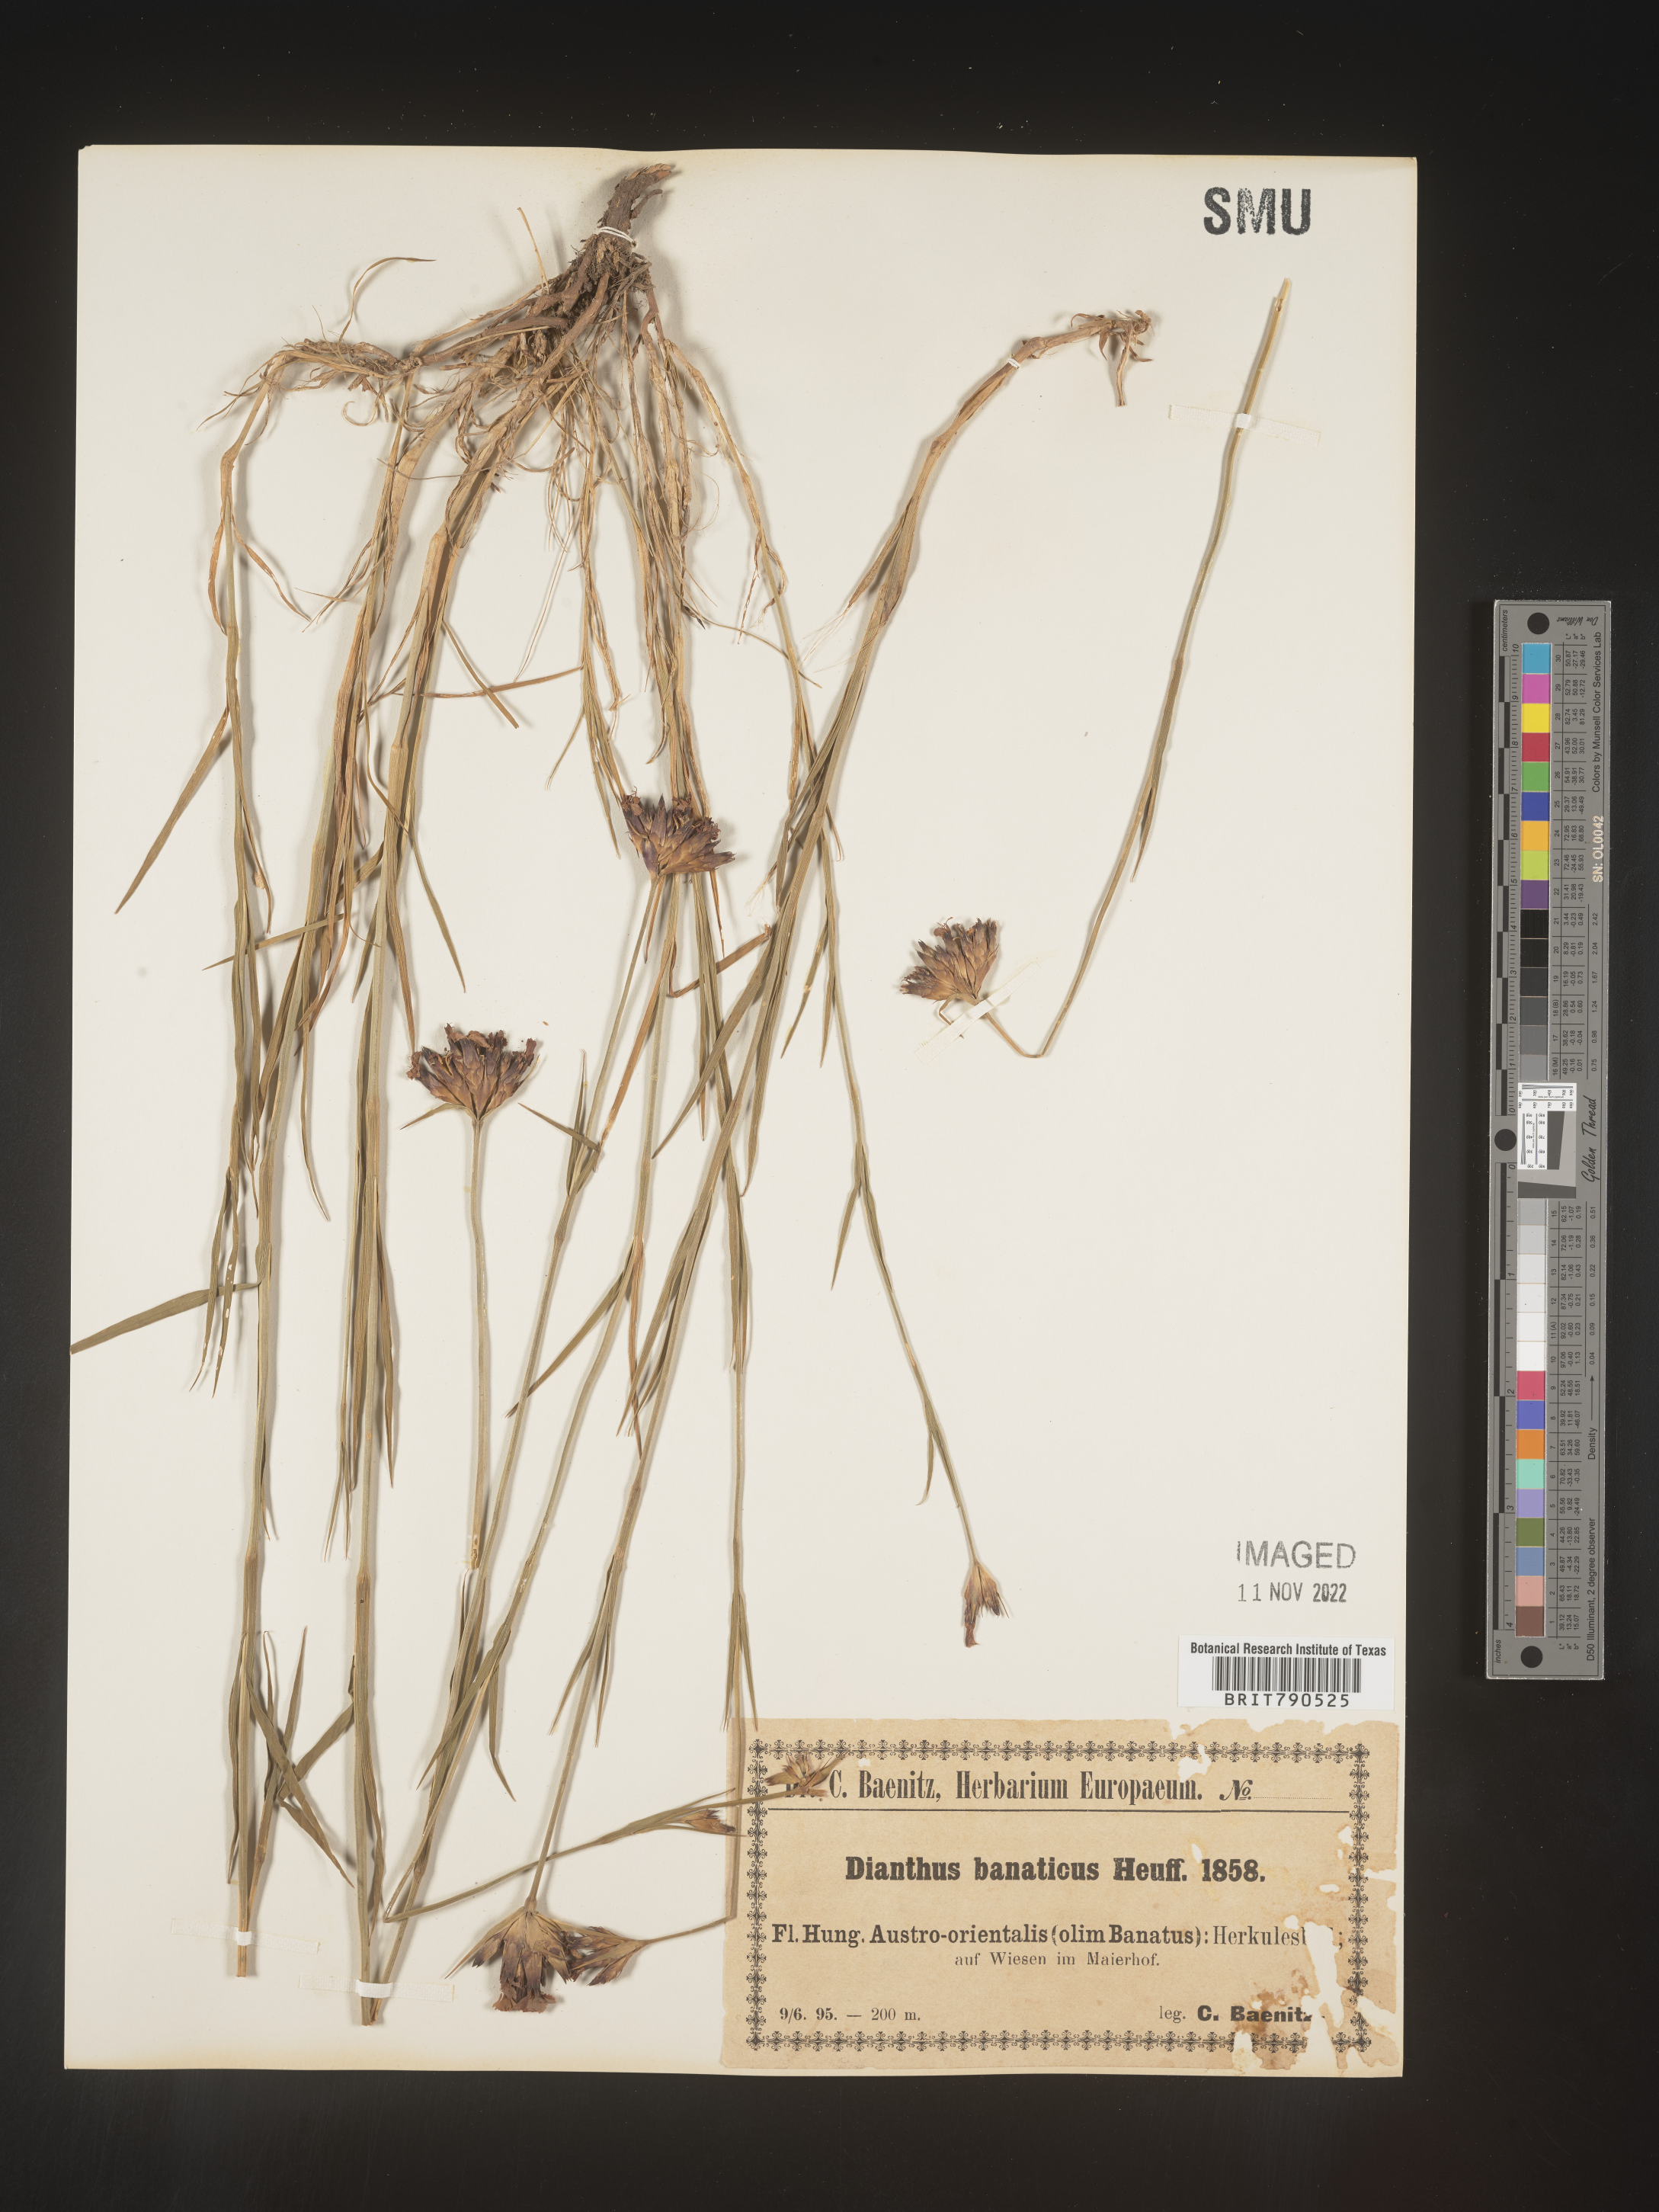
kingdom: Plantae
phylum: Tracheophyta
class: Magnoliopsida
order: Caryophyllales
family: Caryophyllaceae
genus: Dianthus
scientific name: Dianthus
